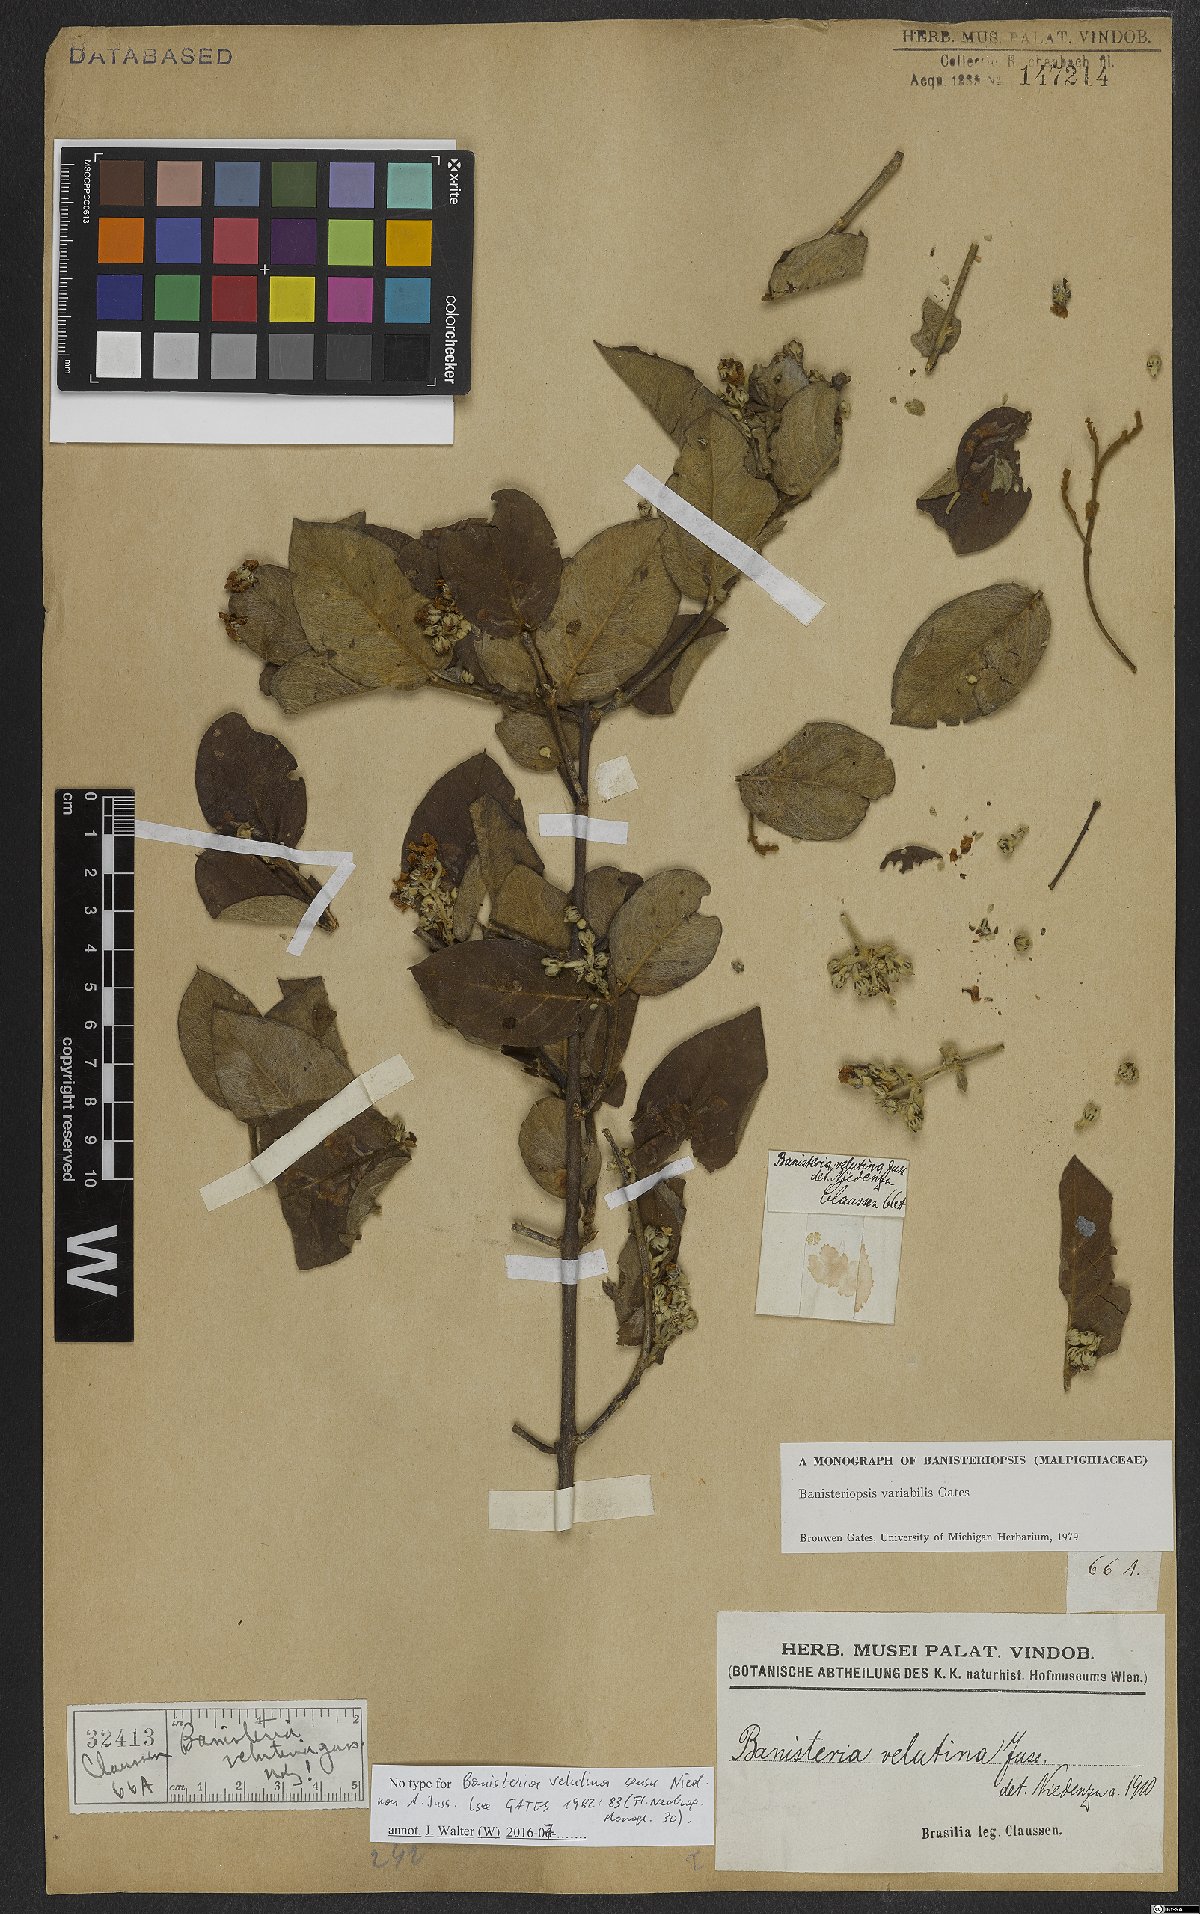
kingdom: Plantae
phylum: Tracheophyta
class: Magnoliopsida
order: Malpighiales
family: Malpighiaceae
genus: Banisteriopsis
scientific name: Banisteriopsis variabilis
